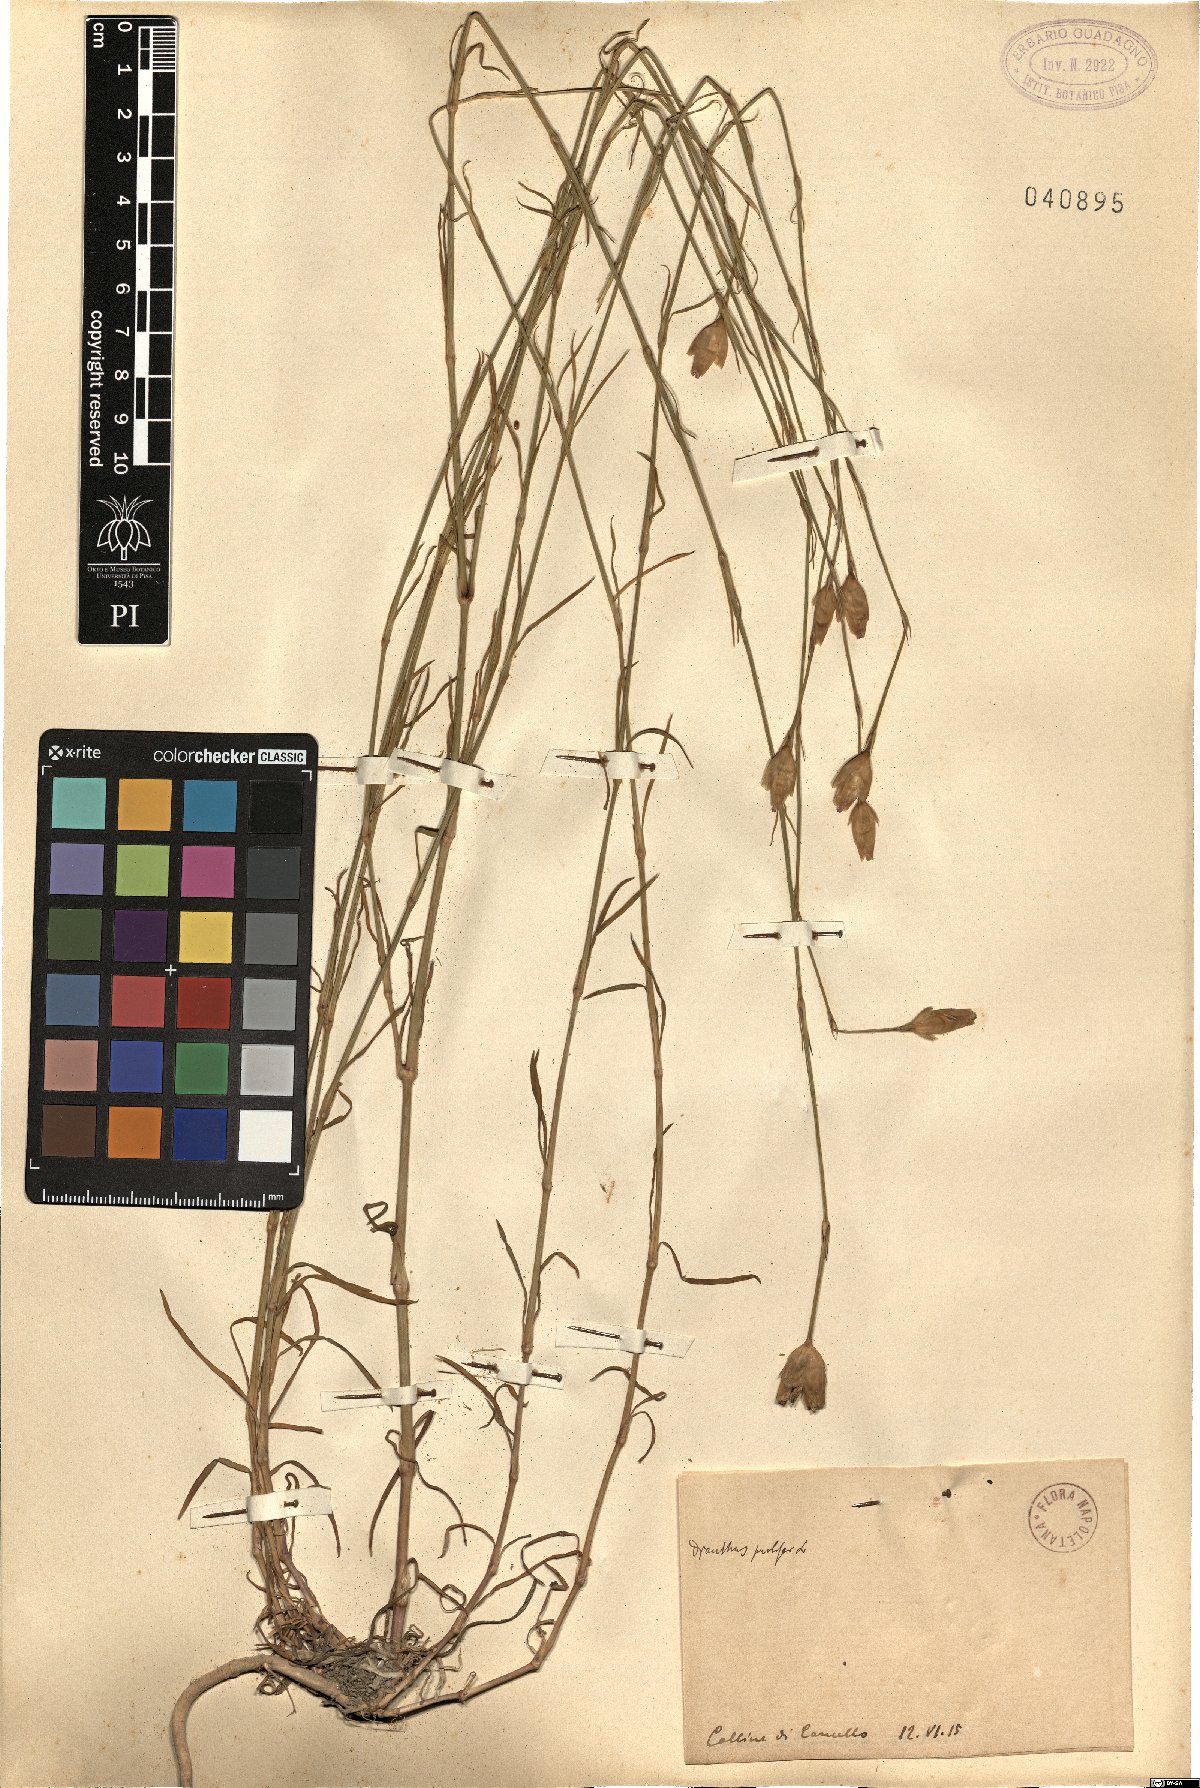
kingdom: Plantae
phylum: Tracheophyta
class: Magnoliopsida
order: Caryophyllales
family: Caryophyllaceae
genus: Petrorhagia
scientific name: Petrorhagia prolifera
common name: Proliferous pink
